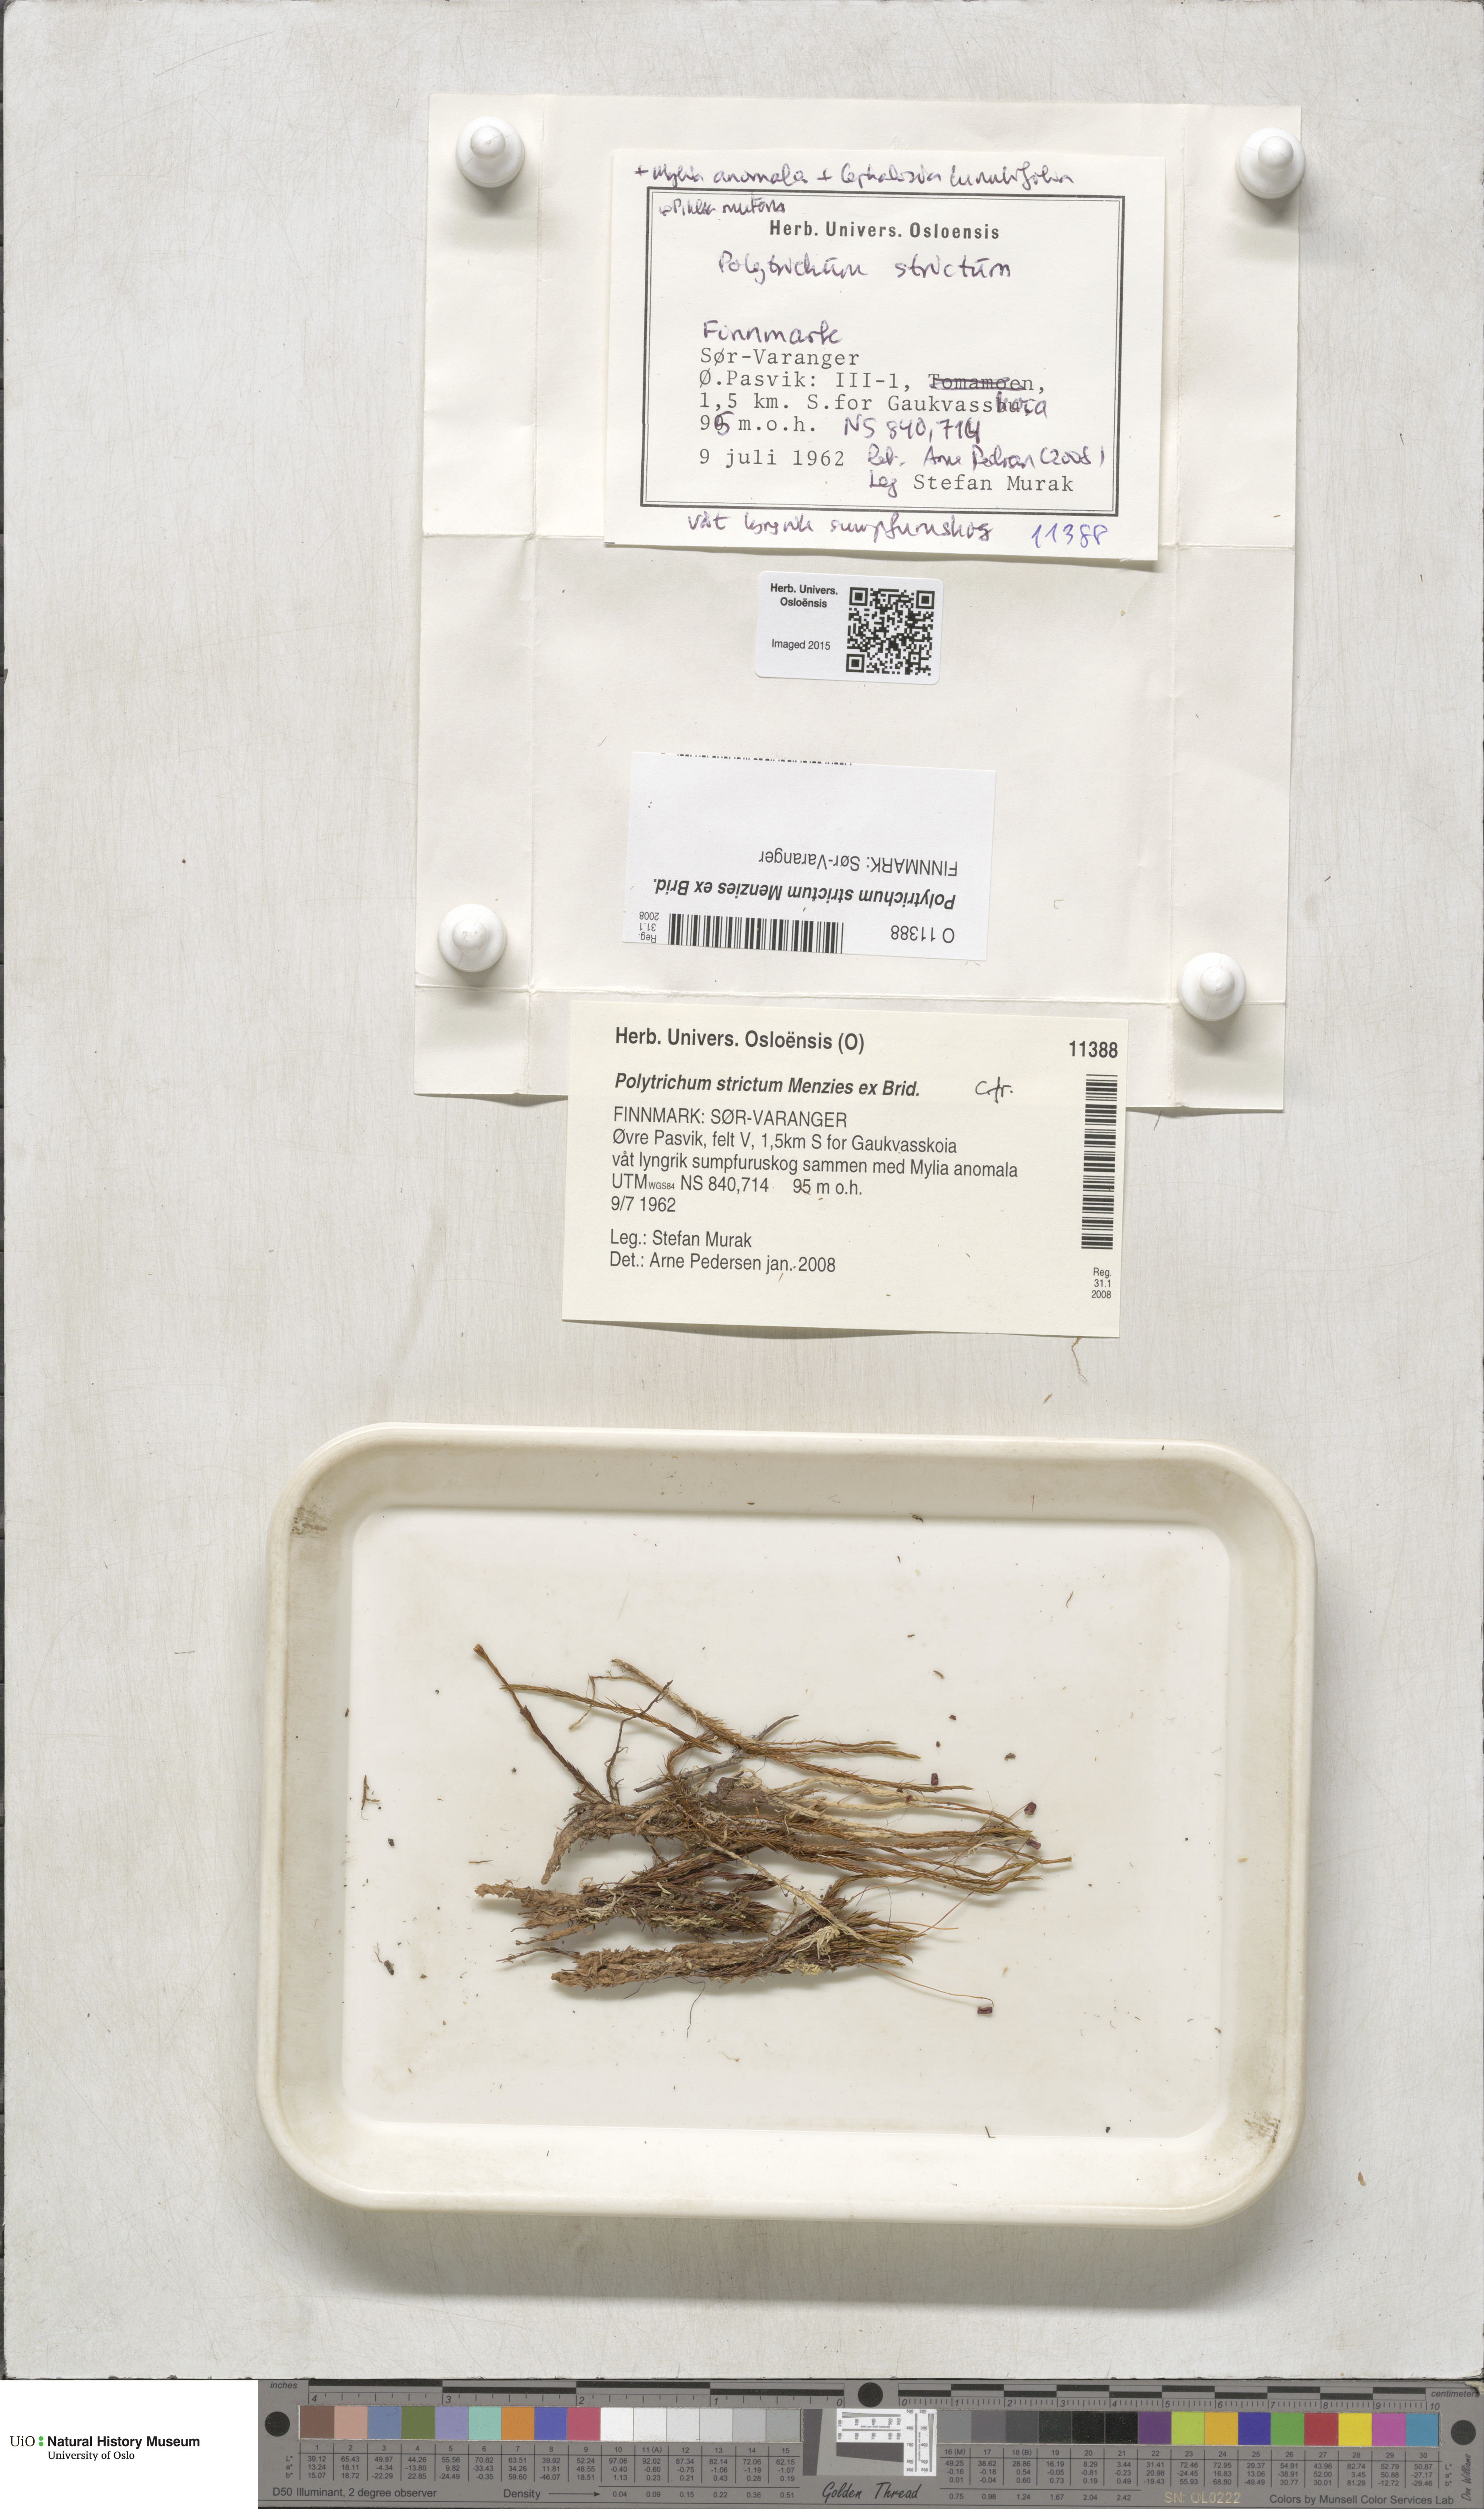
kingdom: Plantae
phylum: Bryophyta
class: Polytrichopsida
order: Polytrichales
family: Polytrichaceae
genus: Polytrichum
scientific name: Polytrichum strictum
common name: Bog haircap moss
